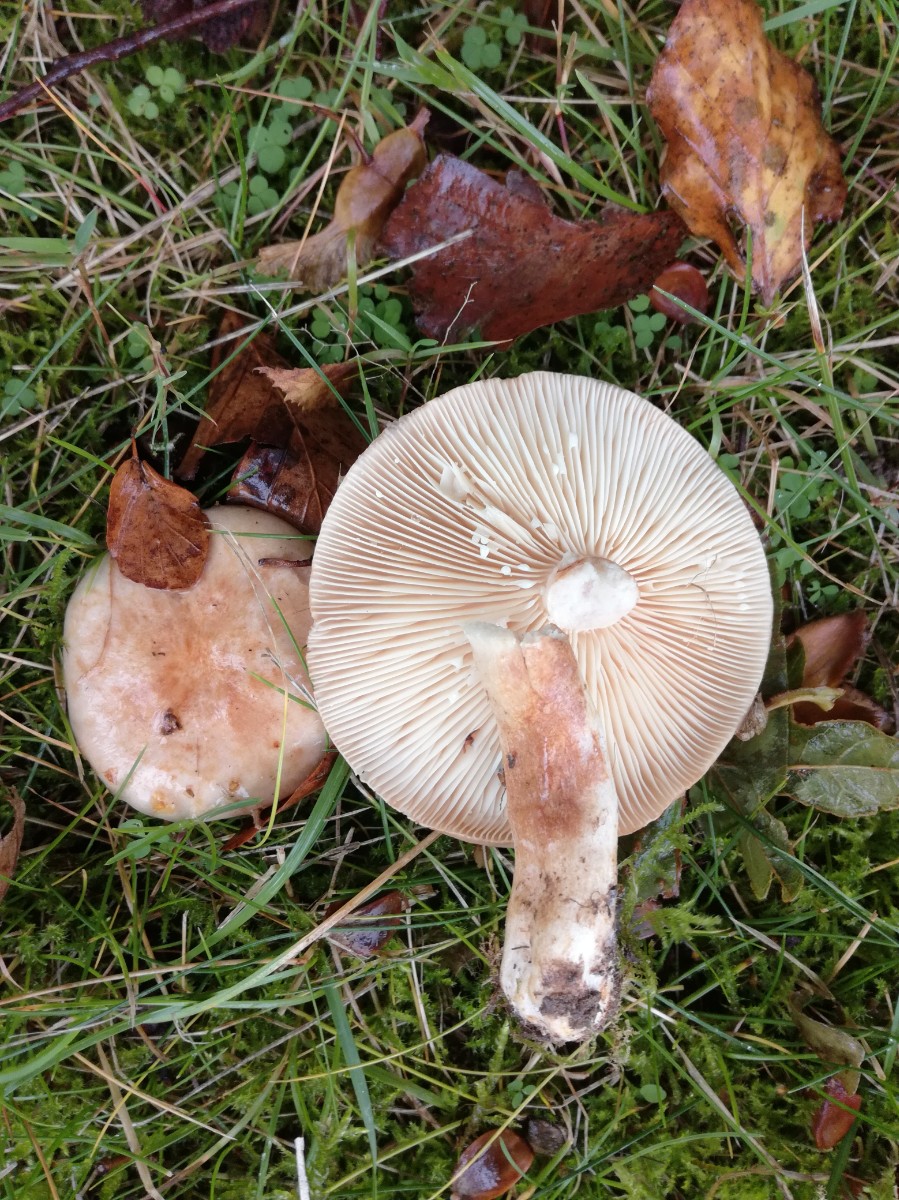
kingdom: Fungi
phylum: Basidiomycota
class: Agaricomycetes
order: Russulales
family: Russulaceae
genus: Lactarius
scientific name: Lactarius
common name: mælkehat
